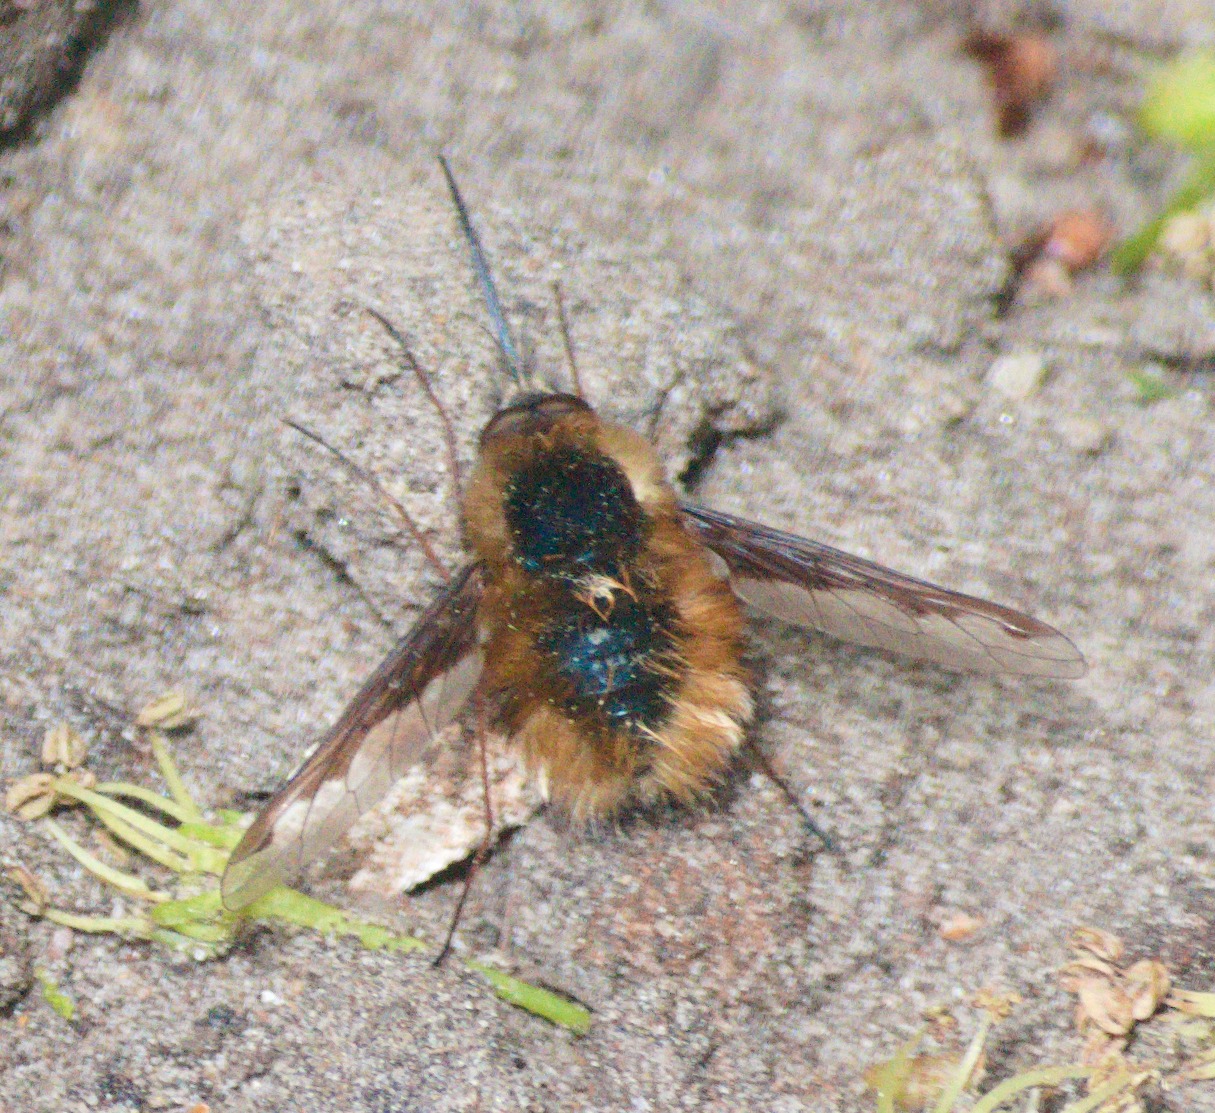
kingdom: Animalia
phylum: Arthropoda
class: Insecta
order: Diptera
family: Bombyliidae
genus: Bombylius
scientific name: Bombylius major
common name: Stor humleflue
